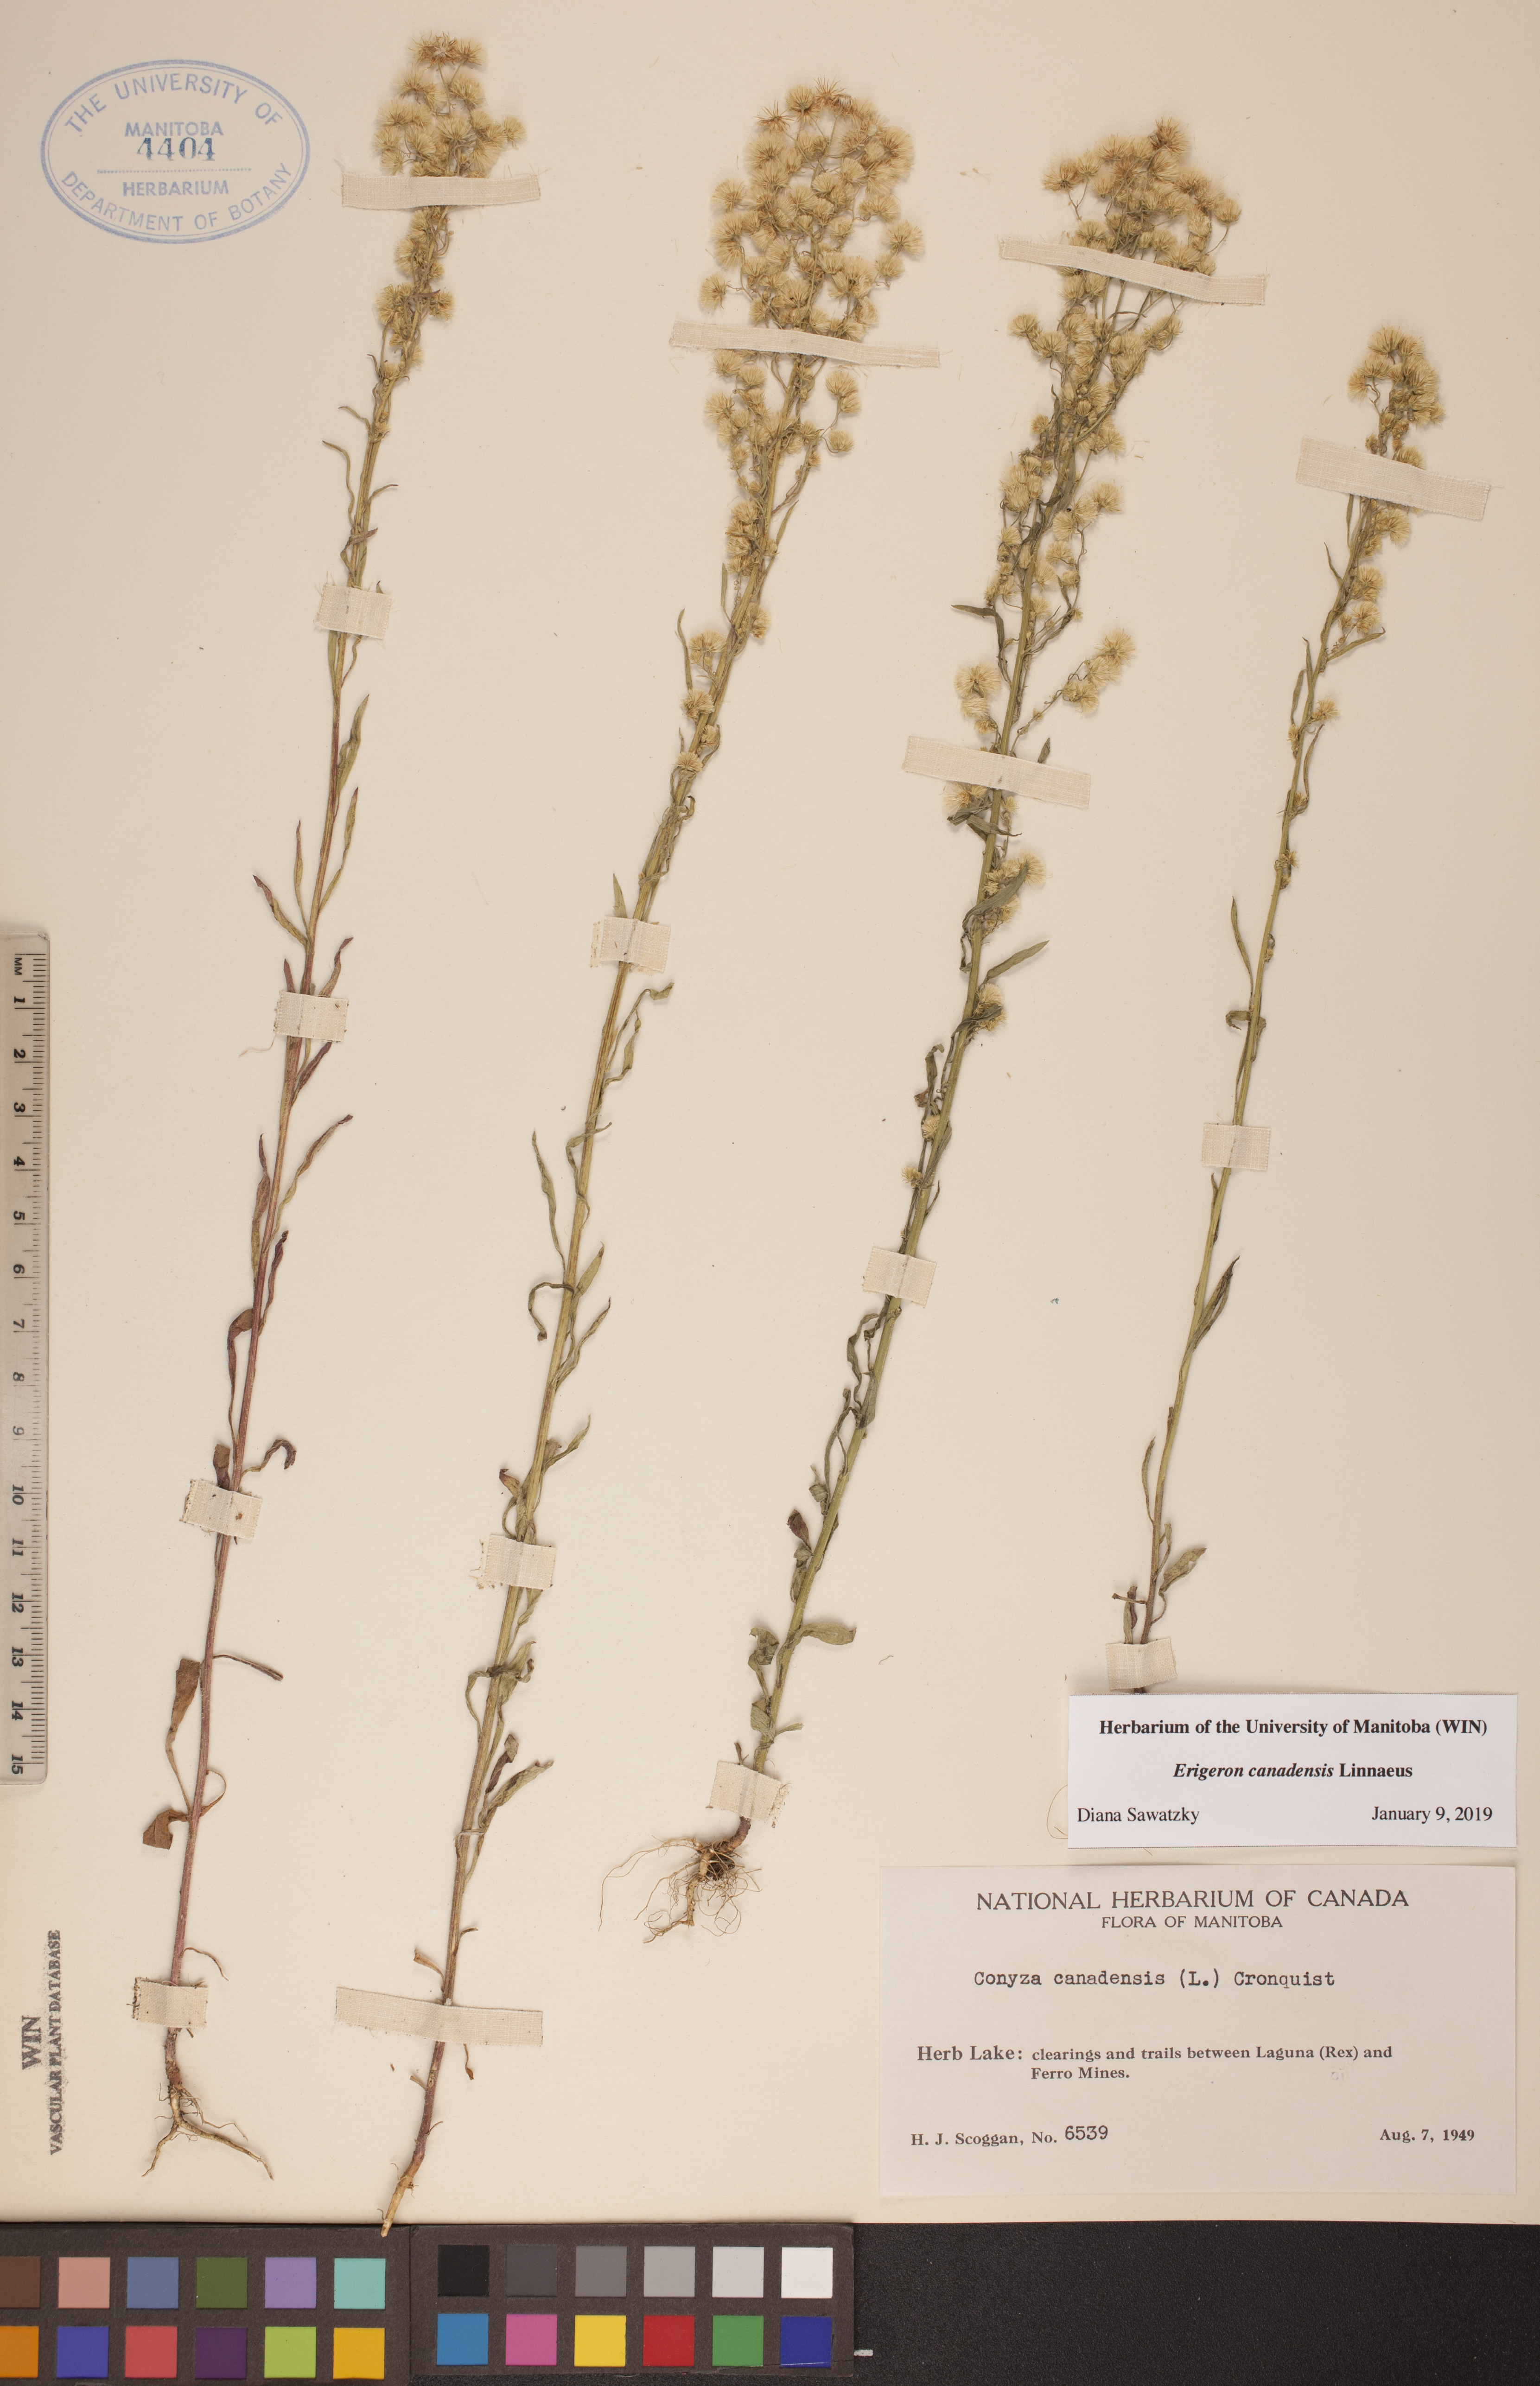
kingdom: Plantae
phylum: Tracheophyta
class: Magnoliopsida
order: Asterales
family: Asteraceae
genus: Erigeron
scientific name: Erigeron canadensis
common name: Canadian fleabane
